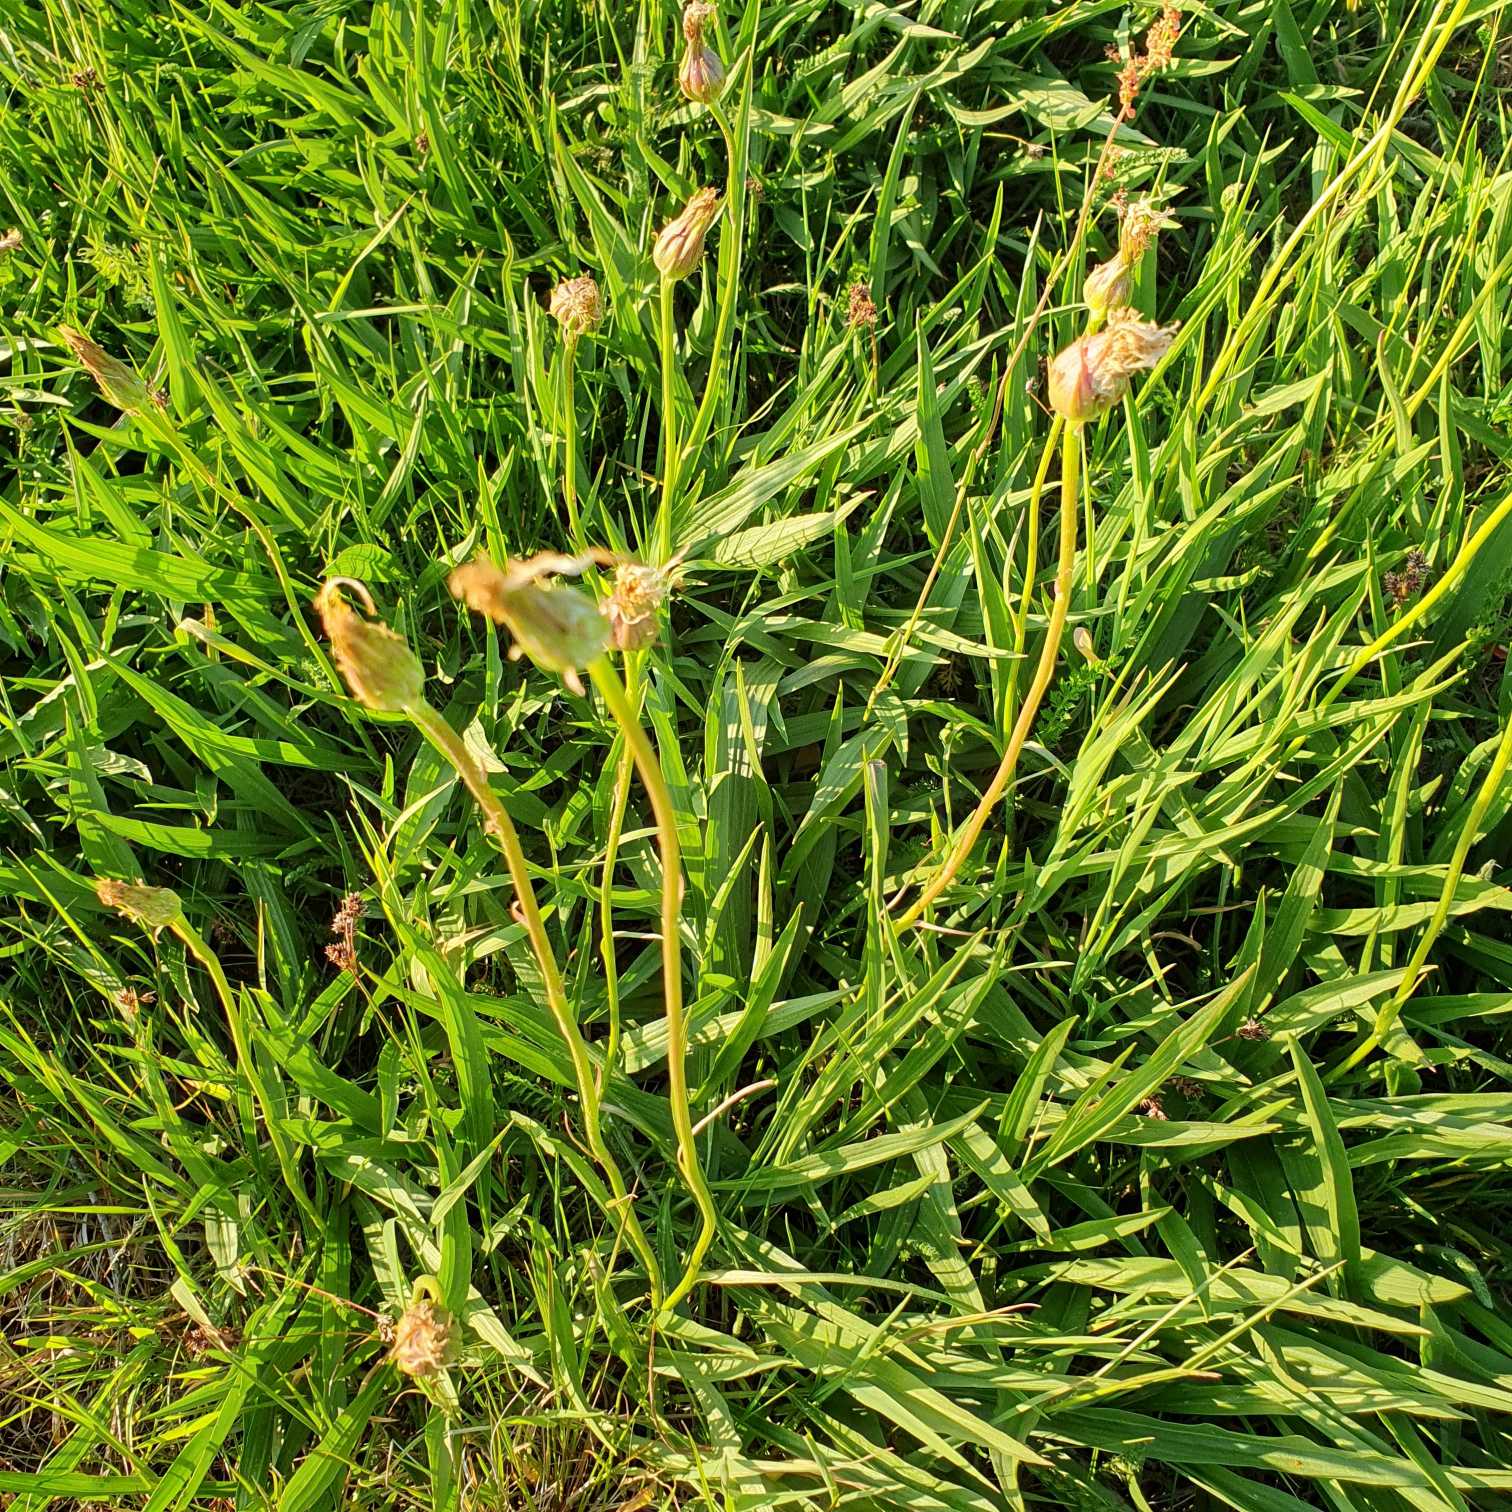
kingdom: Plantae
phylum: Tracheophyta
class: Magnoliopsida
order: Asterales
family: Asteraceae
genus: Scorzonera
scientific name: Scorzonera humilis
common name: Lav skorsoner
